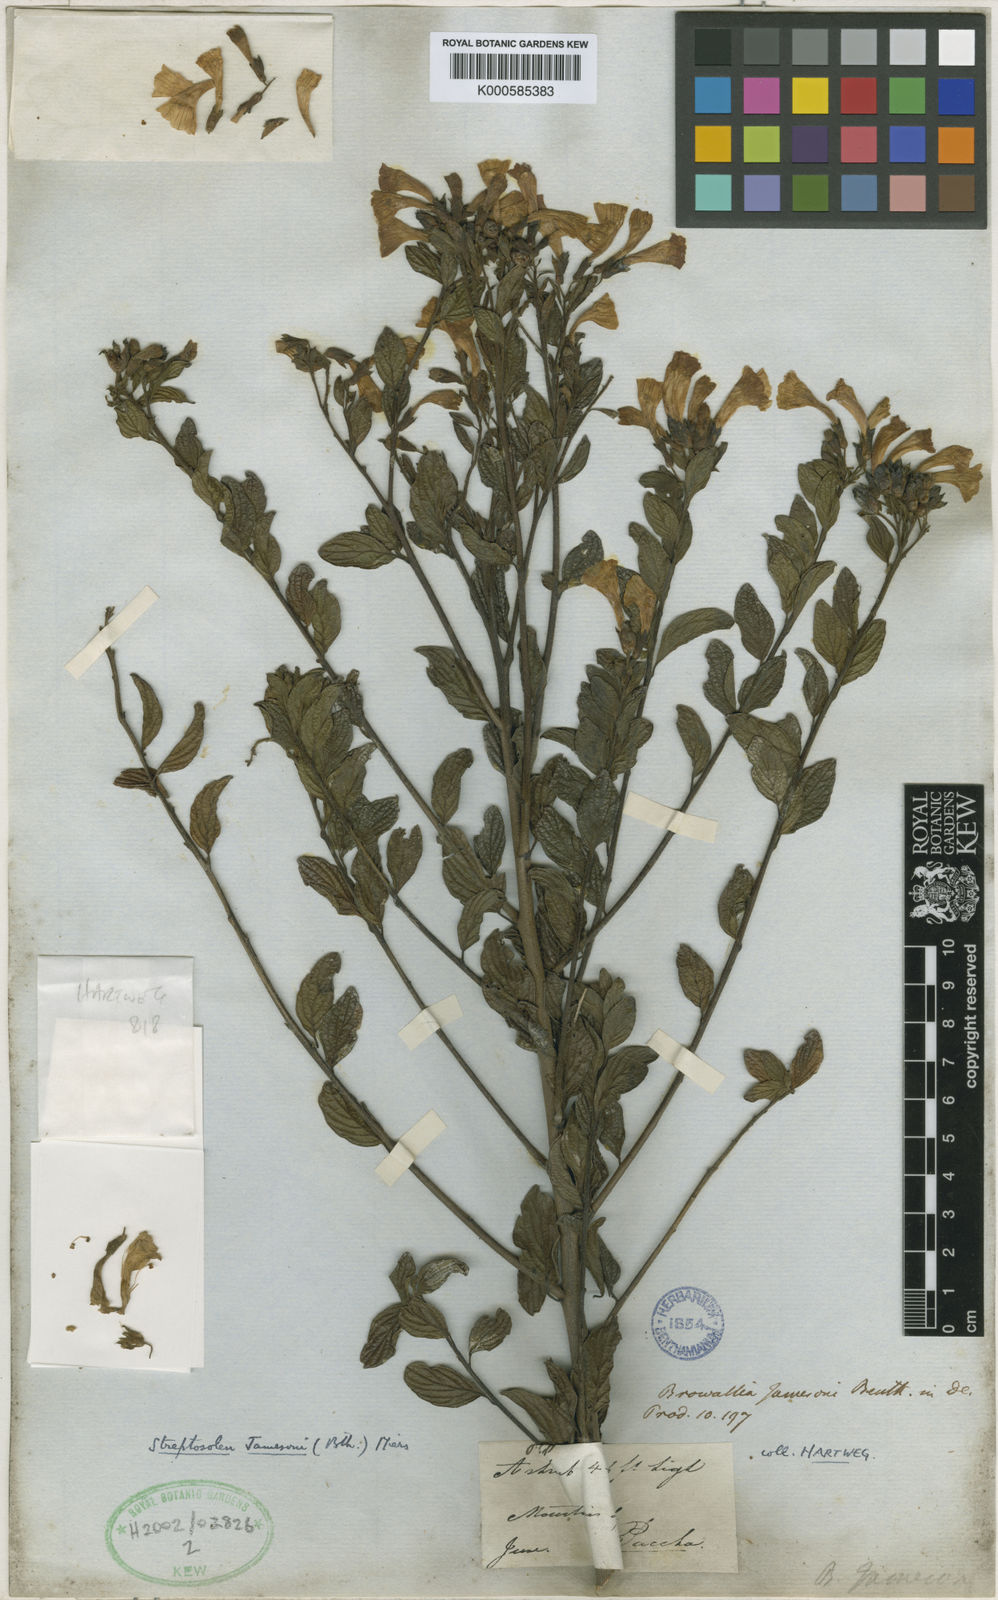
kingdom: Plantae
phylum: Tracheophyta
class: Magnoliopsida
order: Solanales
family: Solanaceae
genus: Streptosolen
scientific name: Streptosolen jamesonii
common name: Marmalade bush
